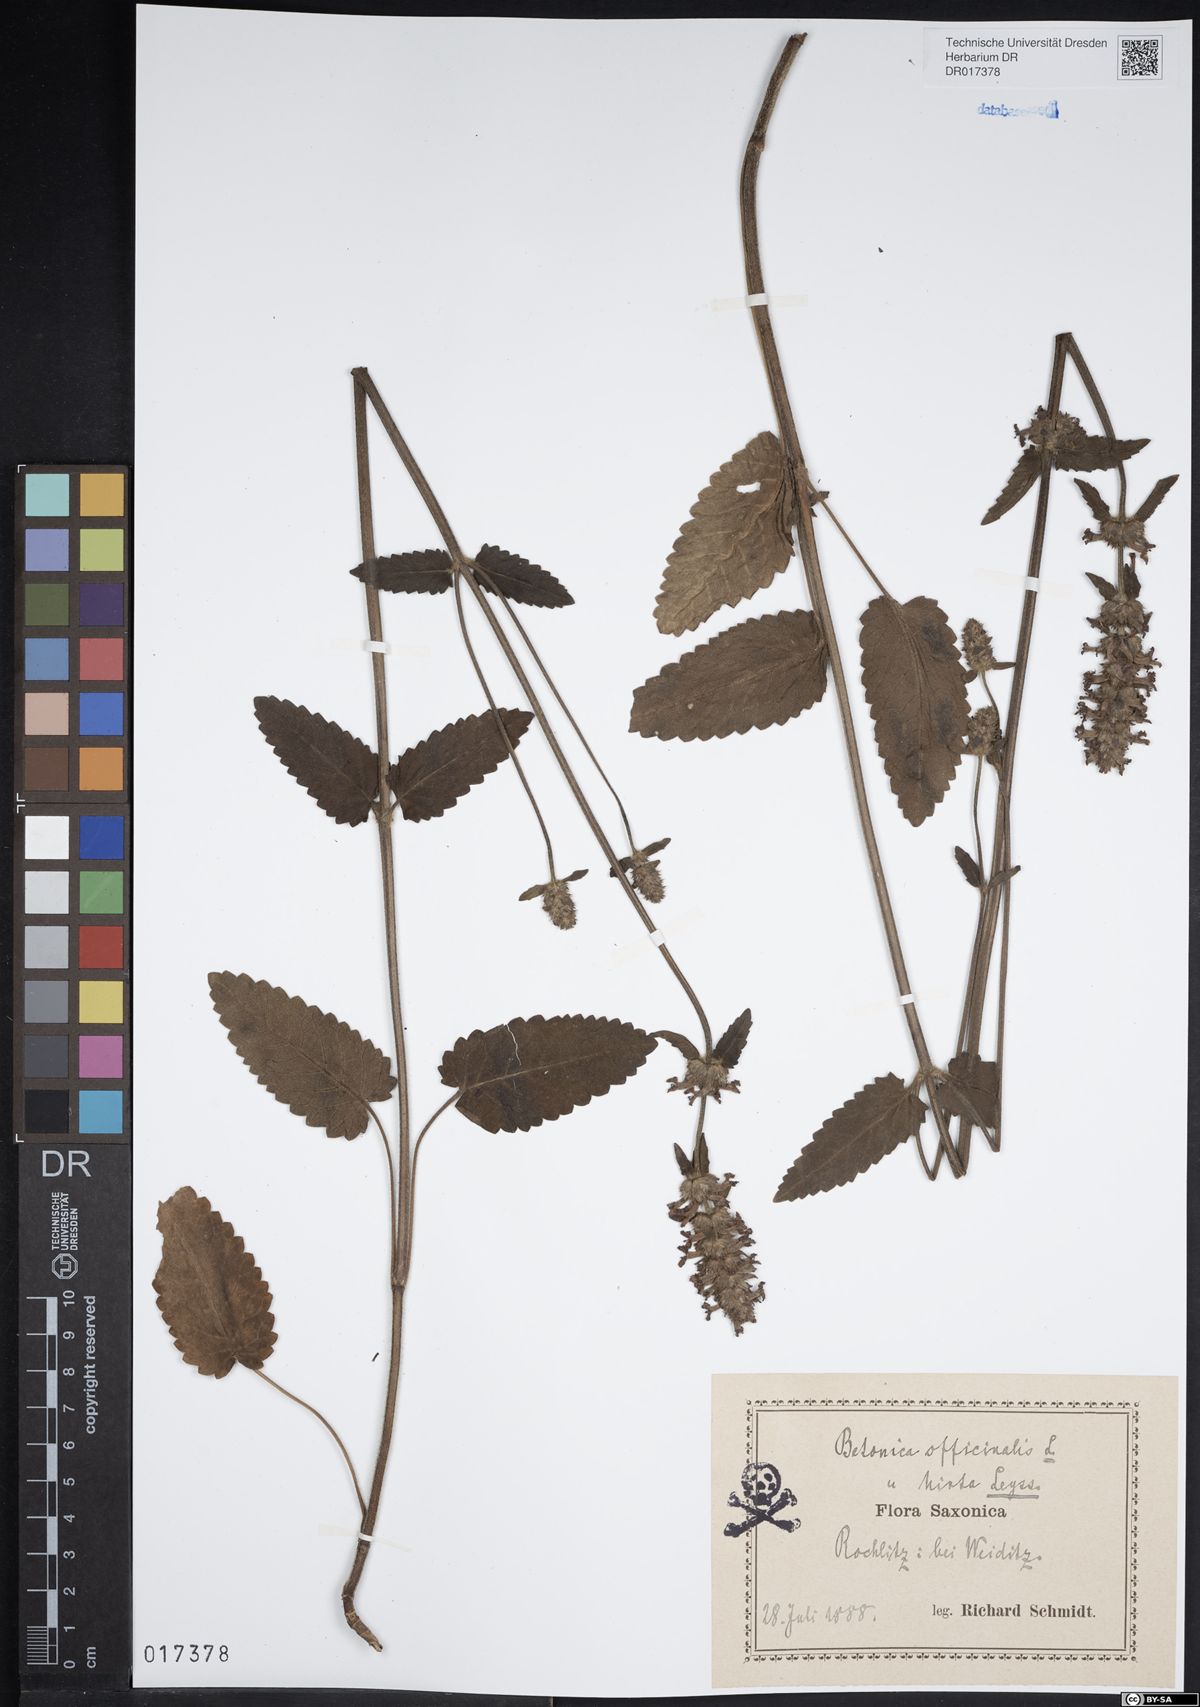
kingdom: Plantae
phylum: Tracheophyta
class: Magnoliopsida
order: Lamiales
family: Lamiaceae
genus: Betonica
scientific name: Betonica officinalis
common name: Bishop's-wort
